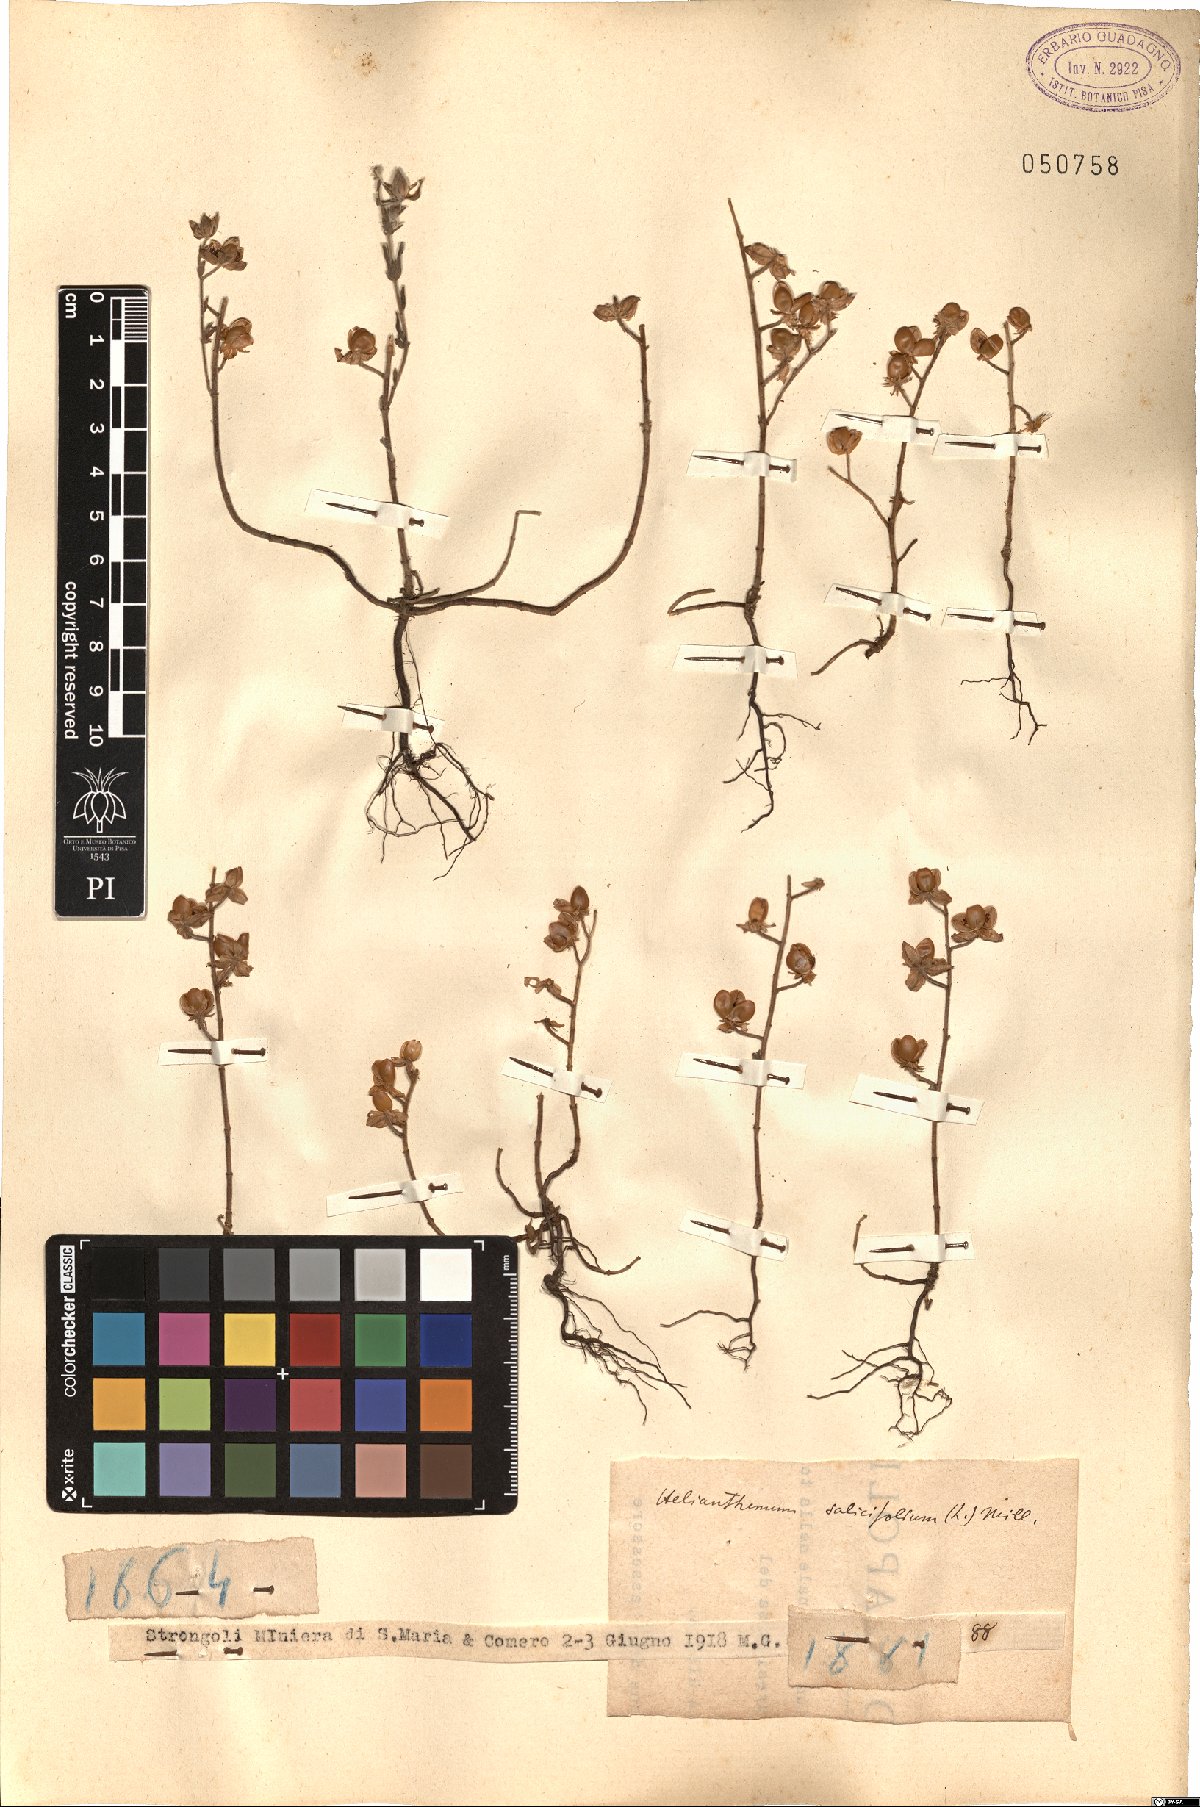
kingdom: Plantae
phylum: Tracheophyta
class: Magnoliopsida
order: Malvales
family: Cistaceae
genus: Helianthemum
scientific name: Helianthemum salicifolium
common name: Willowleaf frostweed
